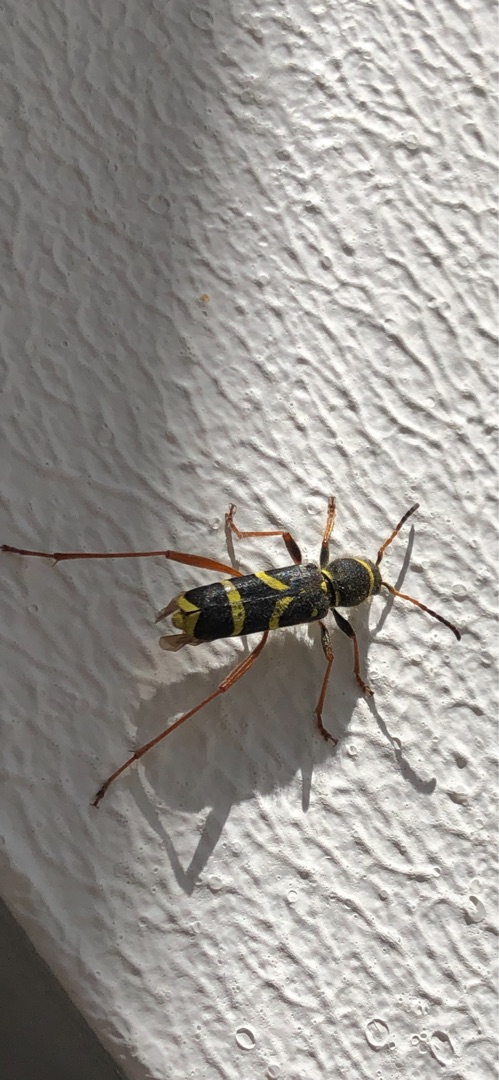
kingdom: Animalia
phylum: Arthropoda
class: Insecta
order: Coleoptera
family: Cerambycidae
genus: Clytus
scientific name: Clytus arietis
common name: Lille hvepsebuk
